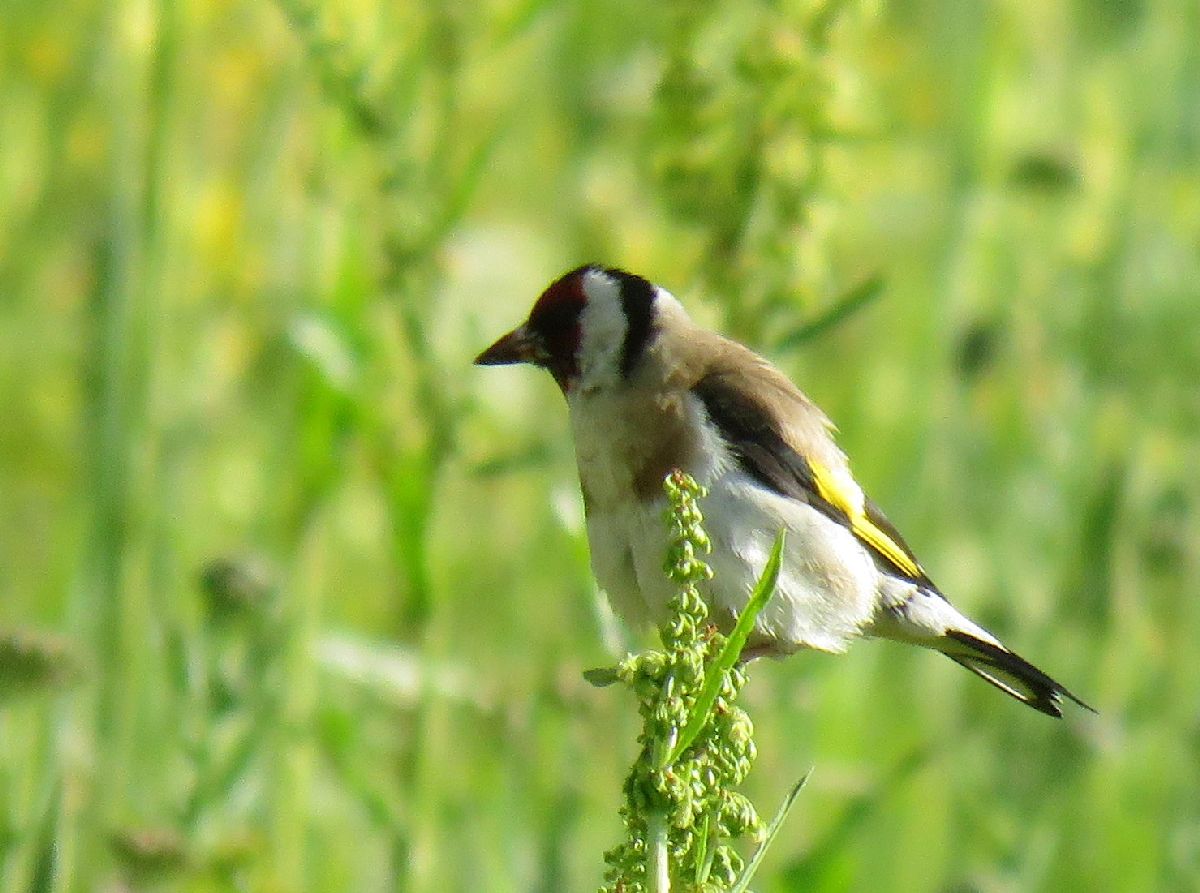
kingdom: Animalia
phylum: Chordata
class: Aves
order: Passeriformes
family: Fringillidae
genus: Carduelis
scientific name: Carduelis carduelis
